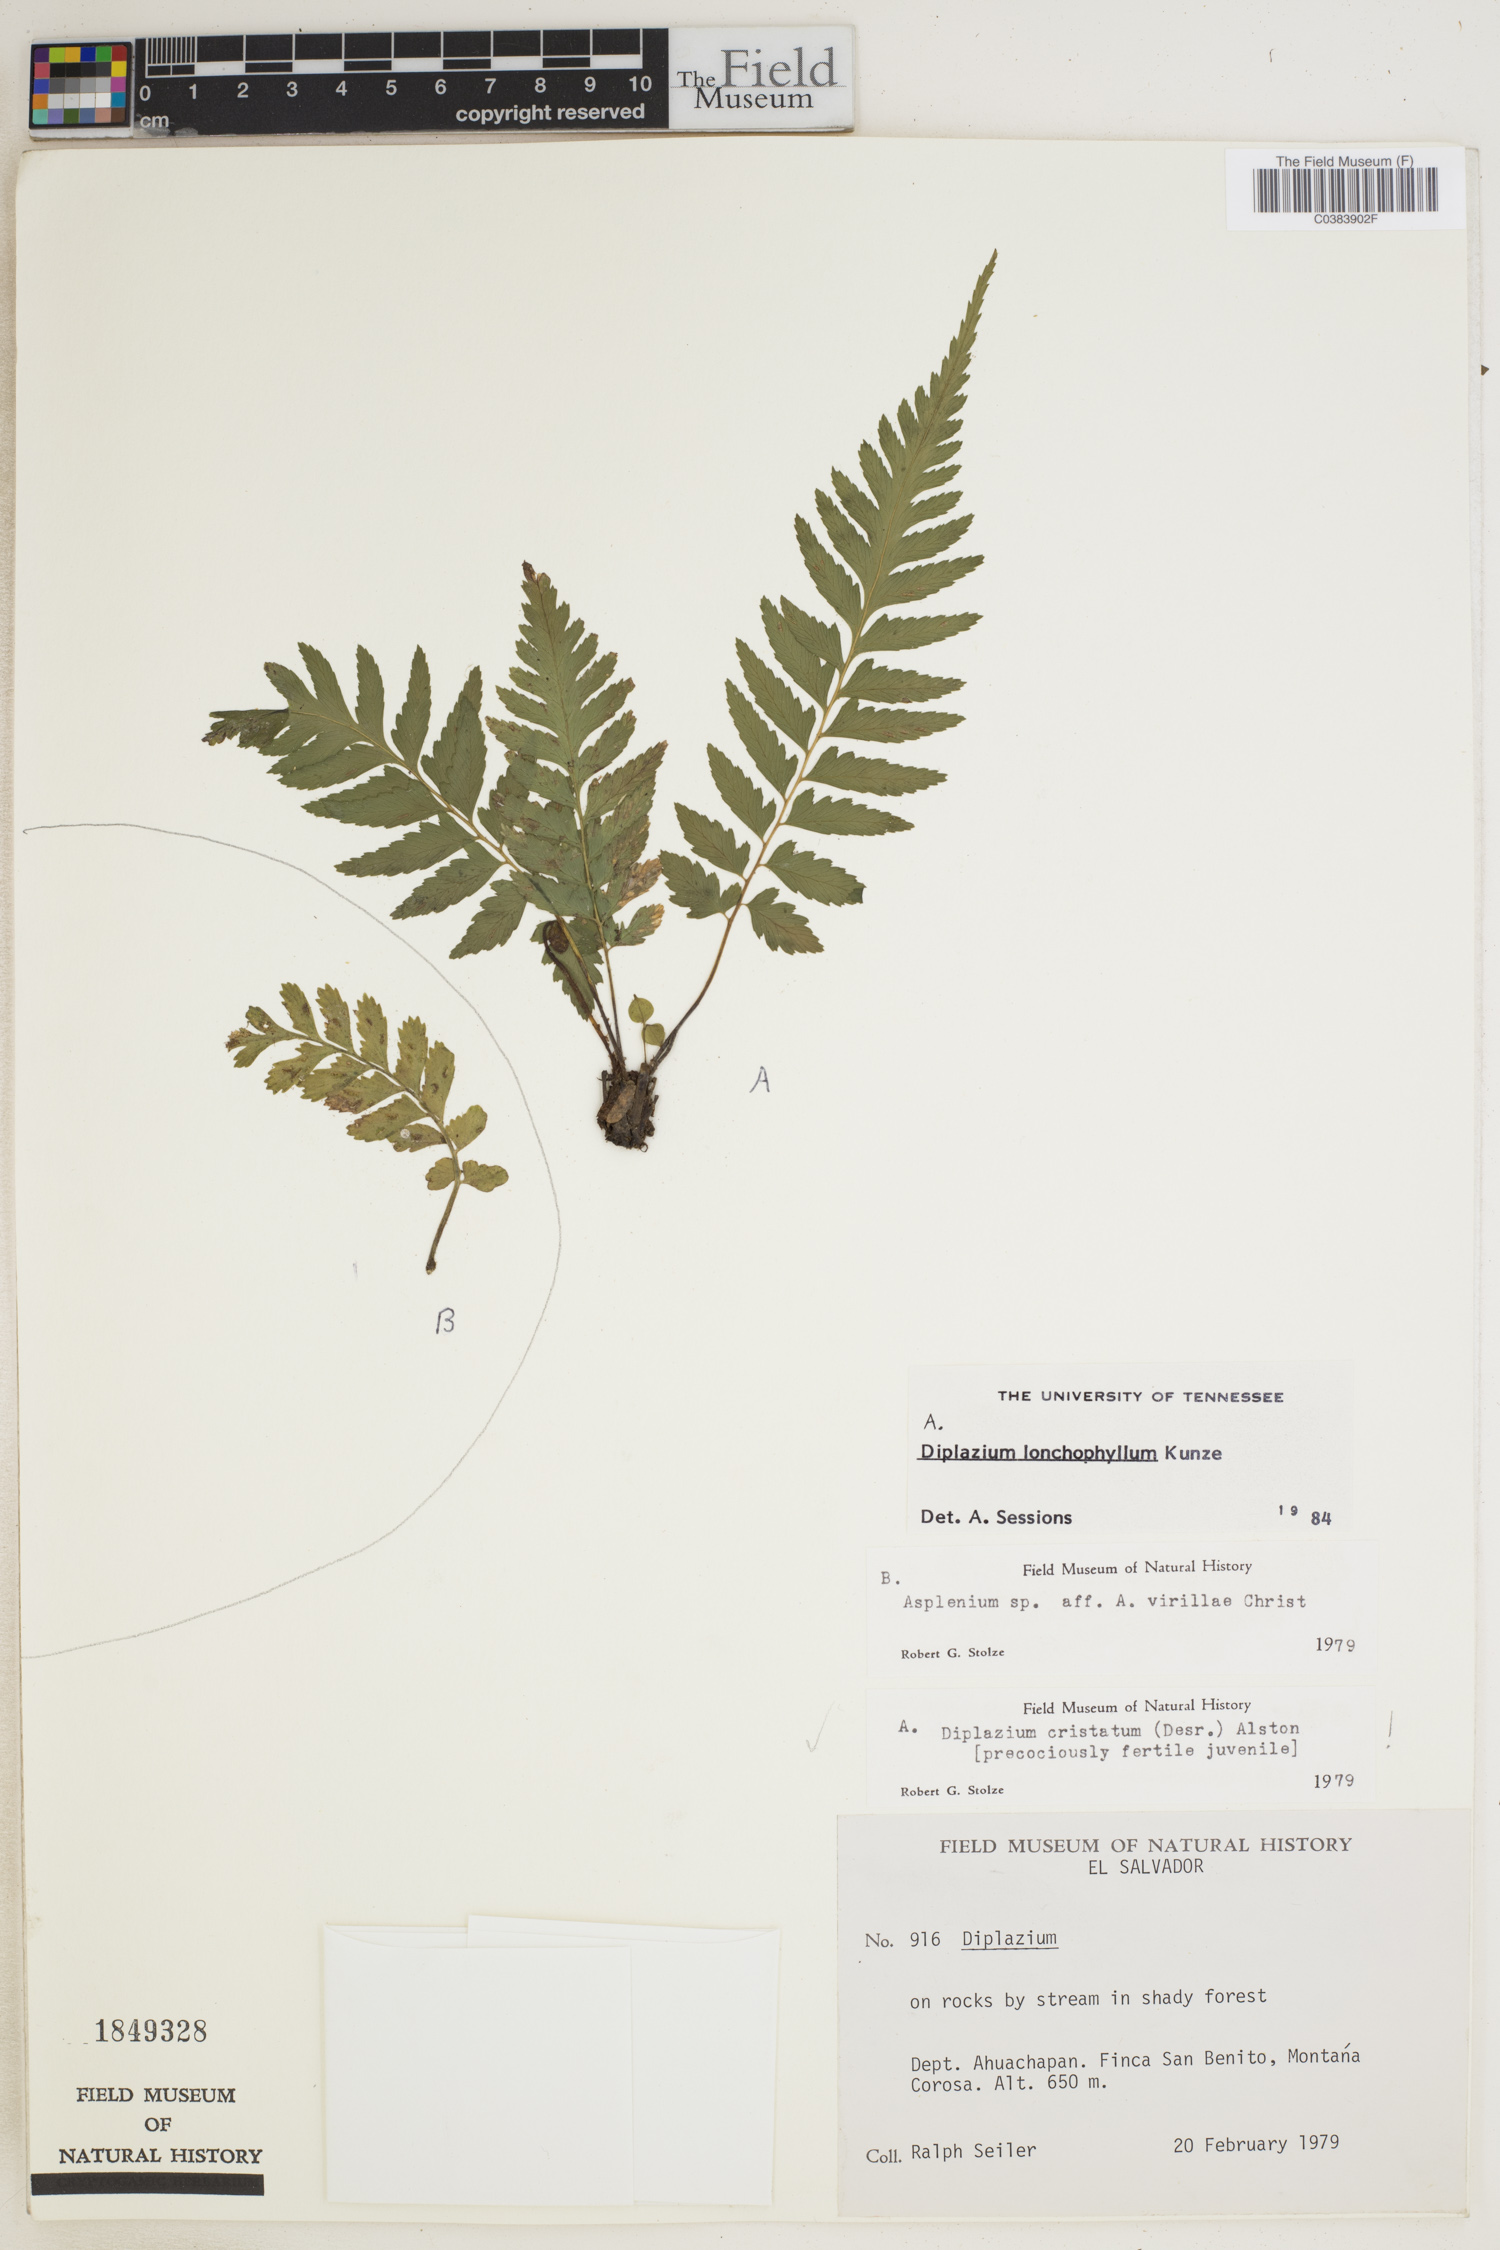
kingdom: Plantae
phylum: Tracheophyta
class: Polypodiopsida
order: Polypodiales
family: Athyriaceae
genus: Diplazium
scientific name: Diplazium lonchophyllum
